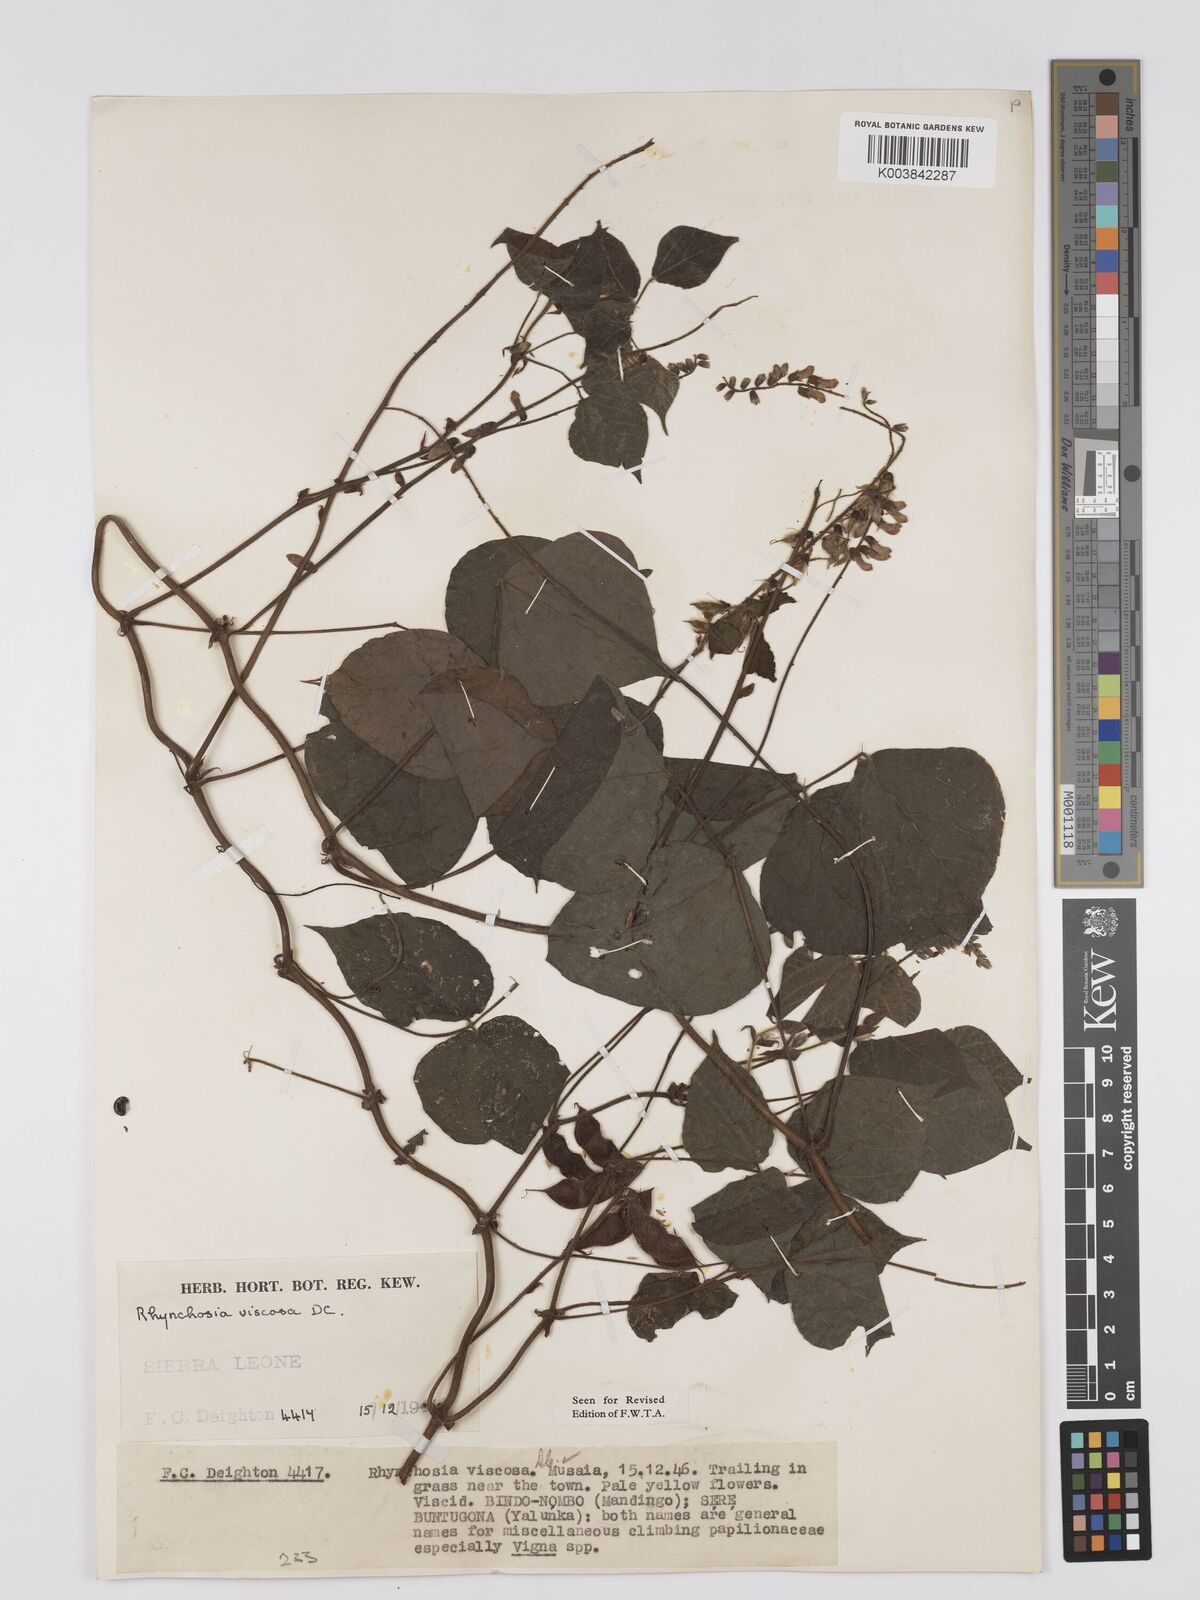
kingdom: Plantae
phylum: Tracheophyta
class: Magnoliopsida
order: Fabales
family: Fabaceae
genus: Rhynchosia
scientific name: Rhynchosia viscosa
